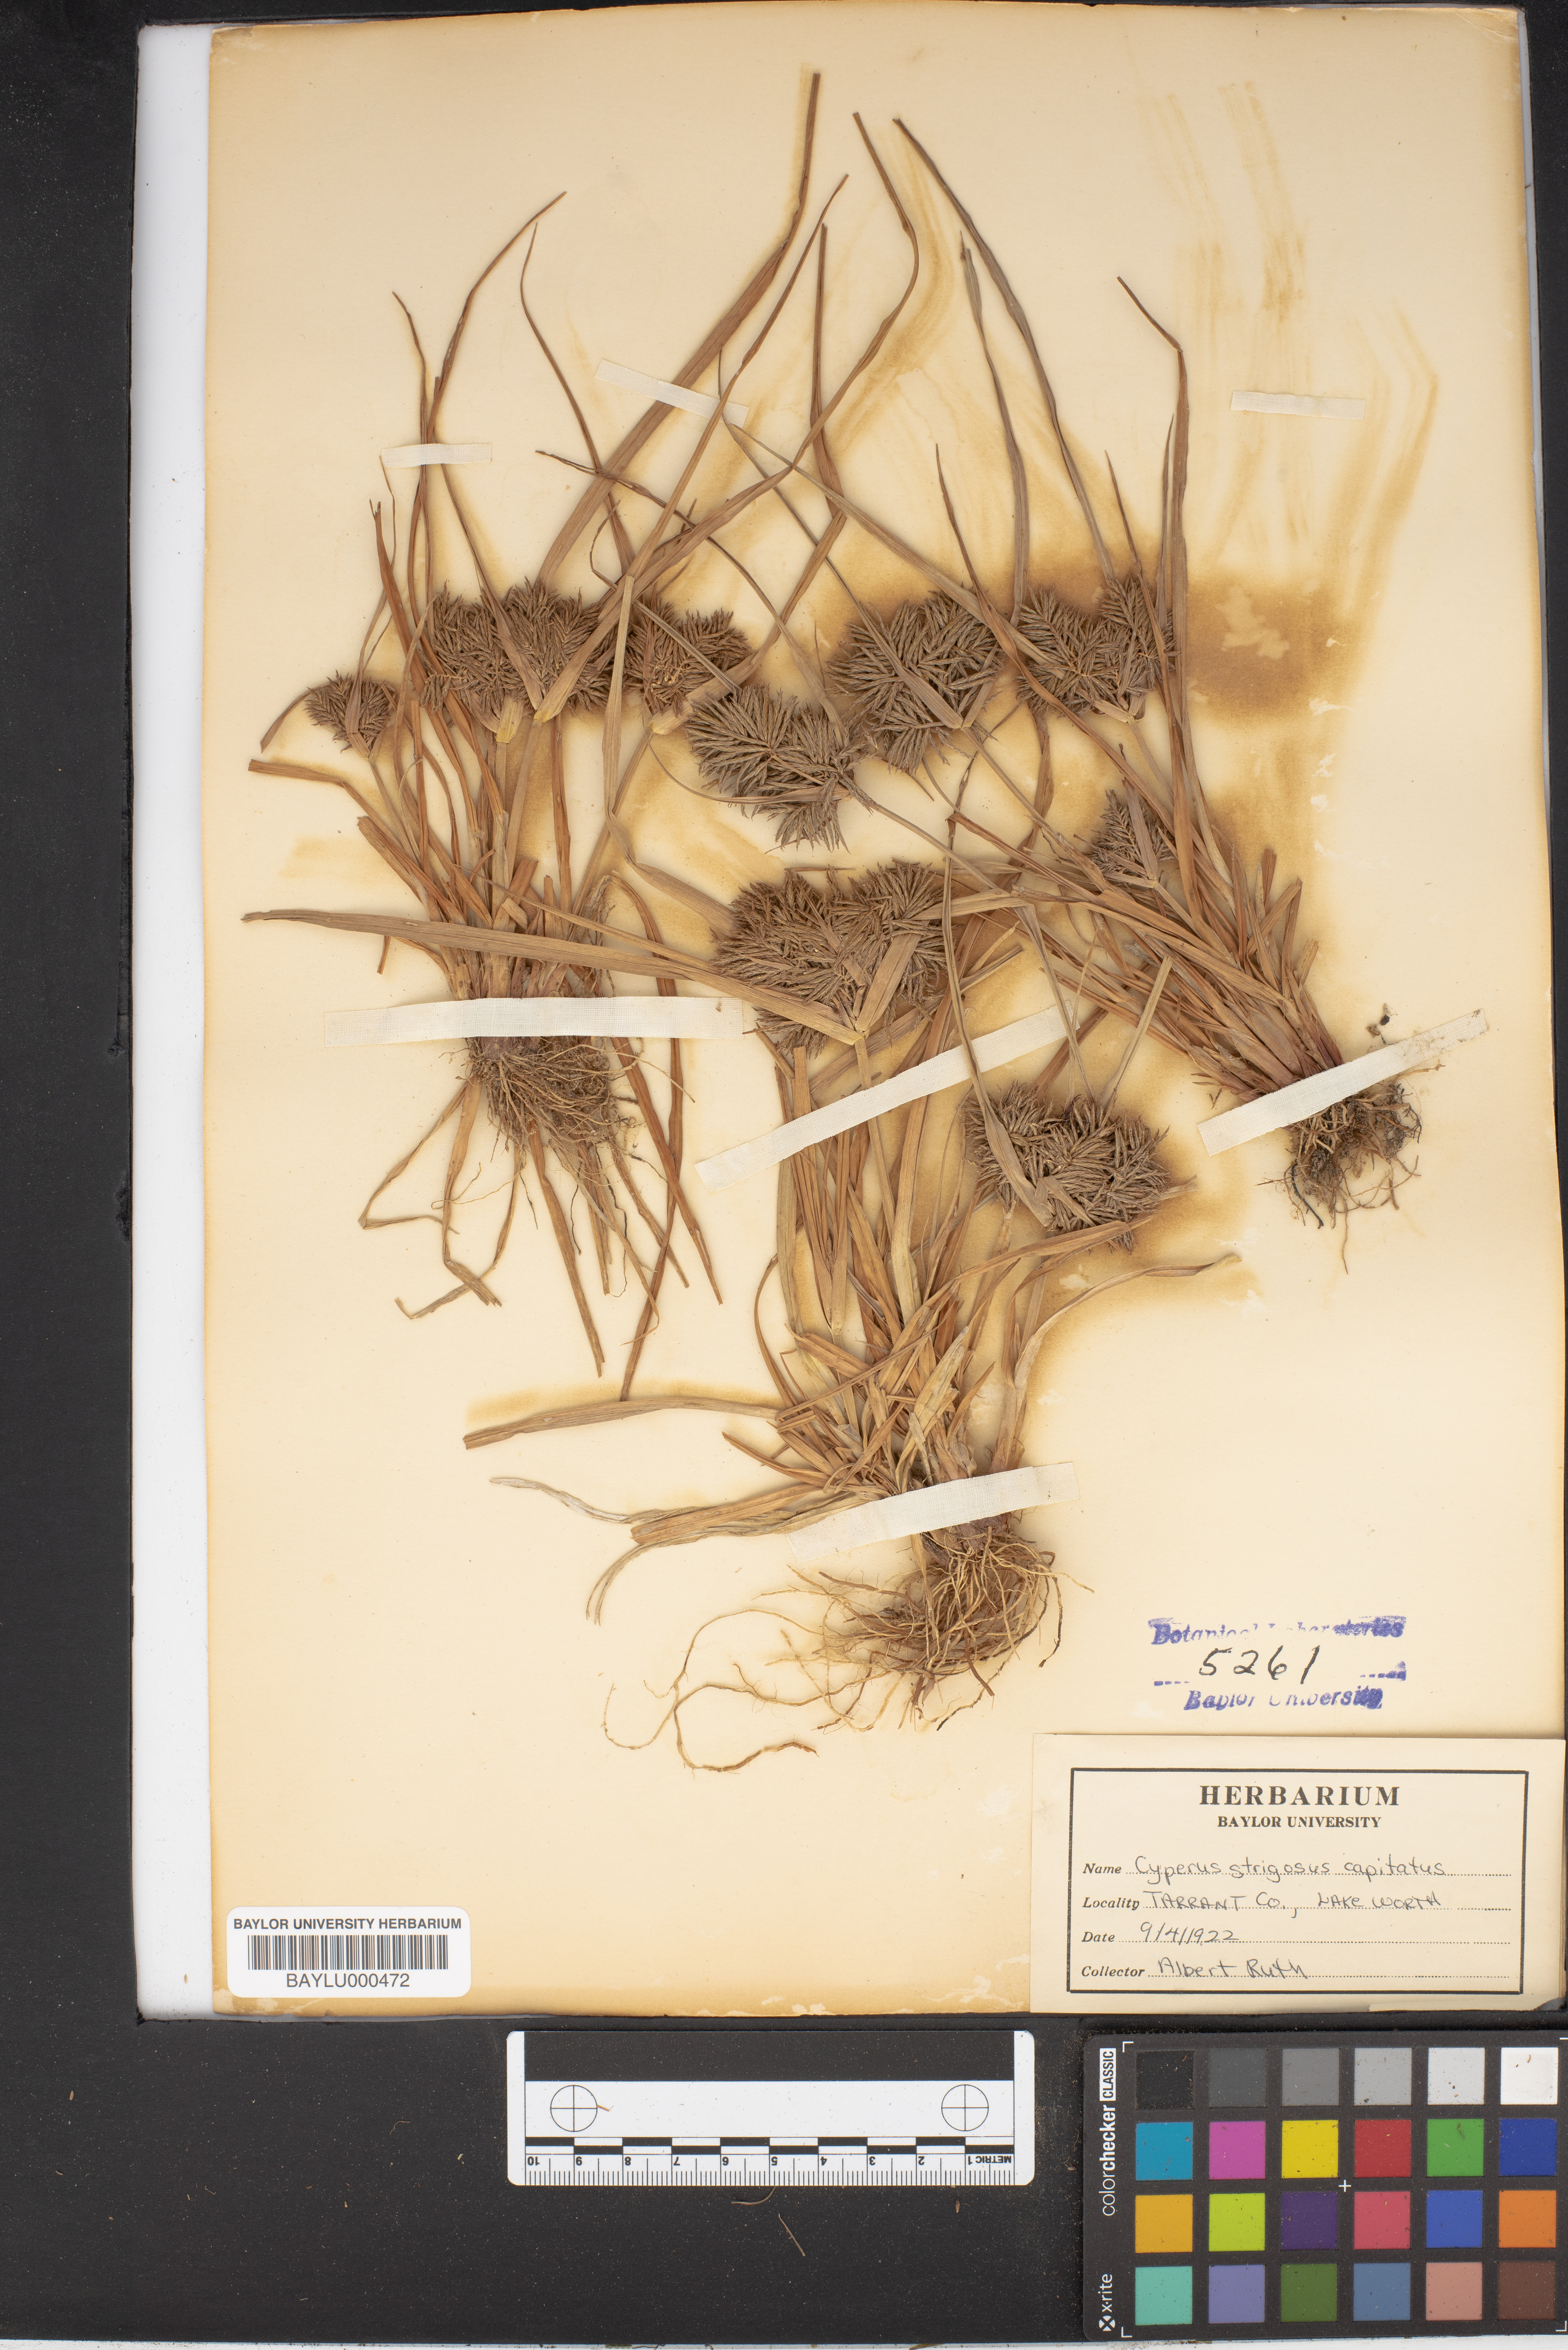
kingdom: Plantae
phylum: Tracheophyta
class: Liliopsida
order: Poales
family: Cyperaceae
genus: Cyperus
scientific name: Cyperus strigosus
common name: False nutsedge
